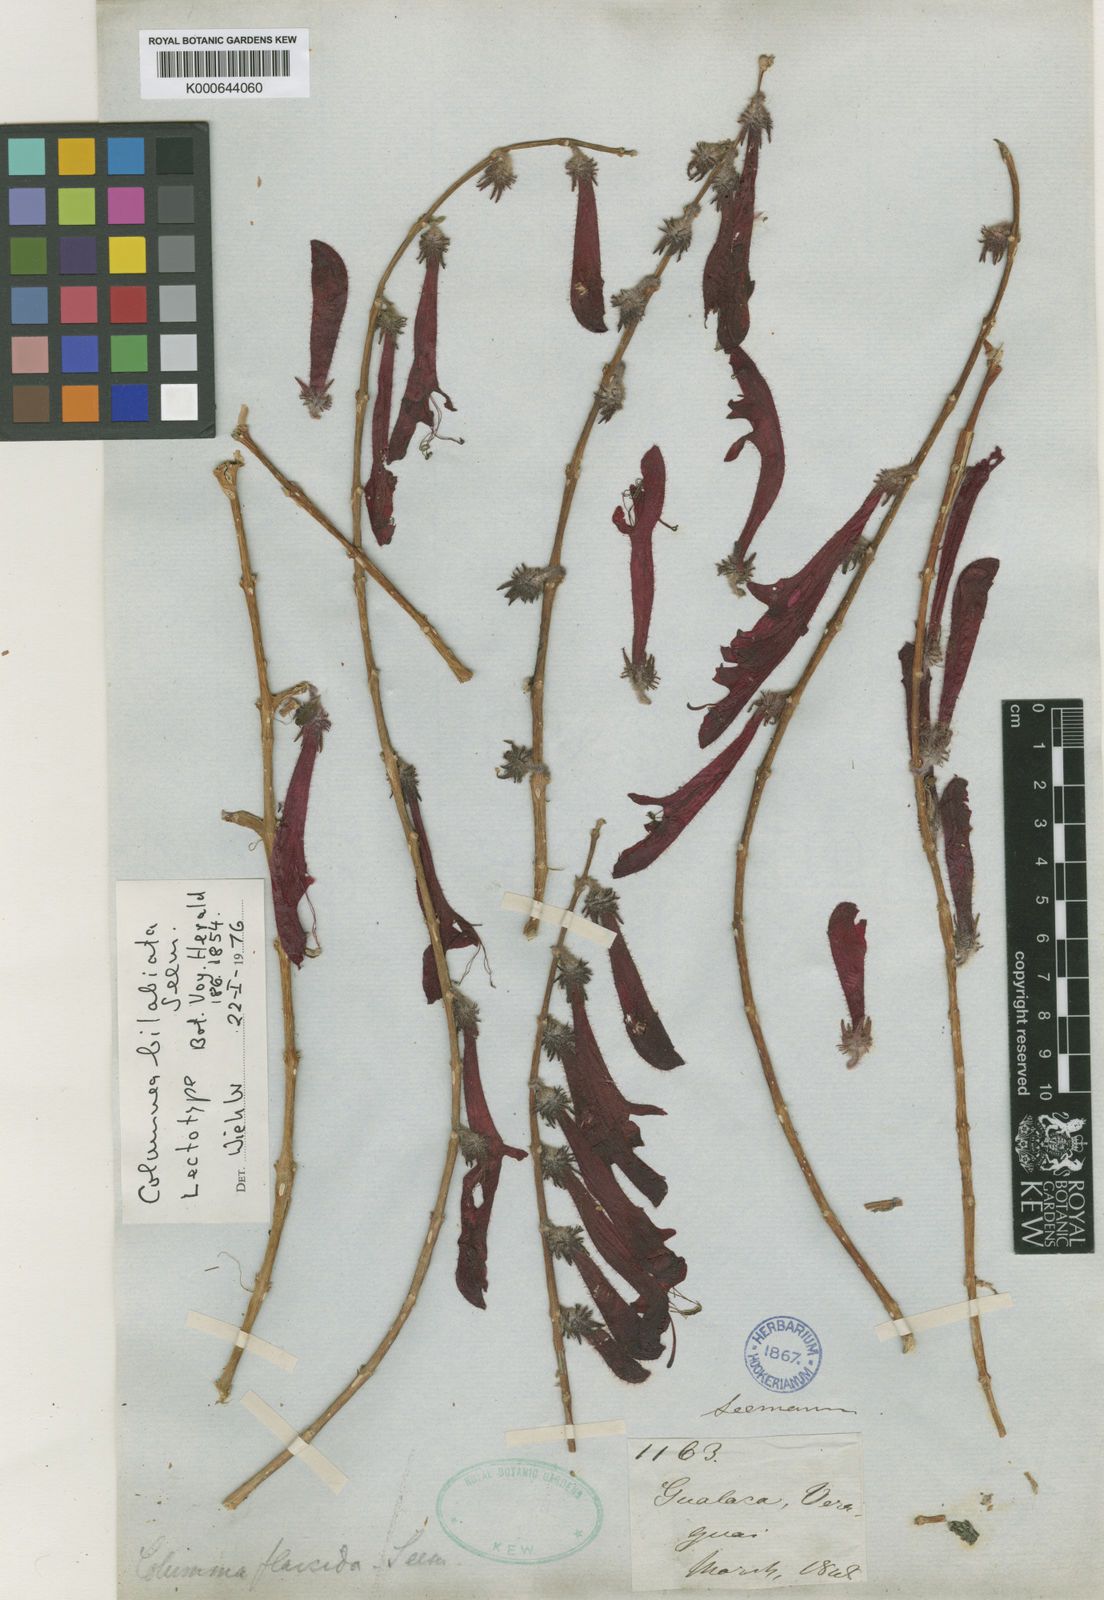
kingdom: Plantae
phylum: Tracheophyta
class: Magnoliopsida
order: Lamiales
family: Gesneriaceae
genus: Columnea
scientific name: Columnea flaccida
